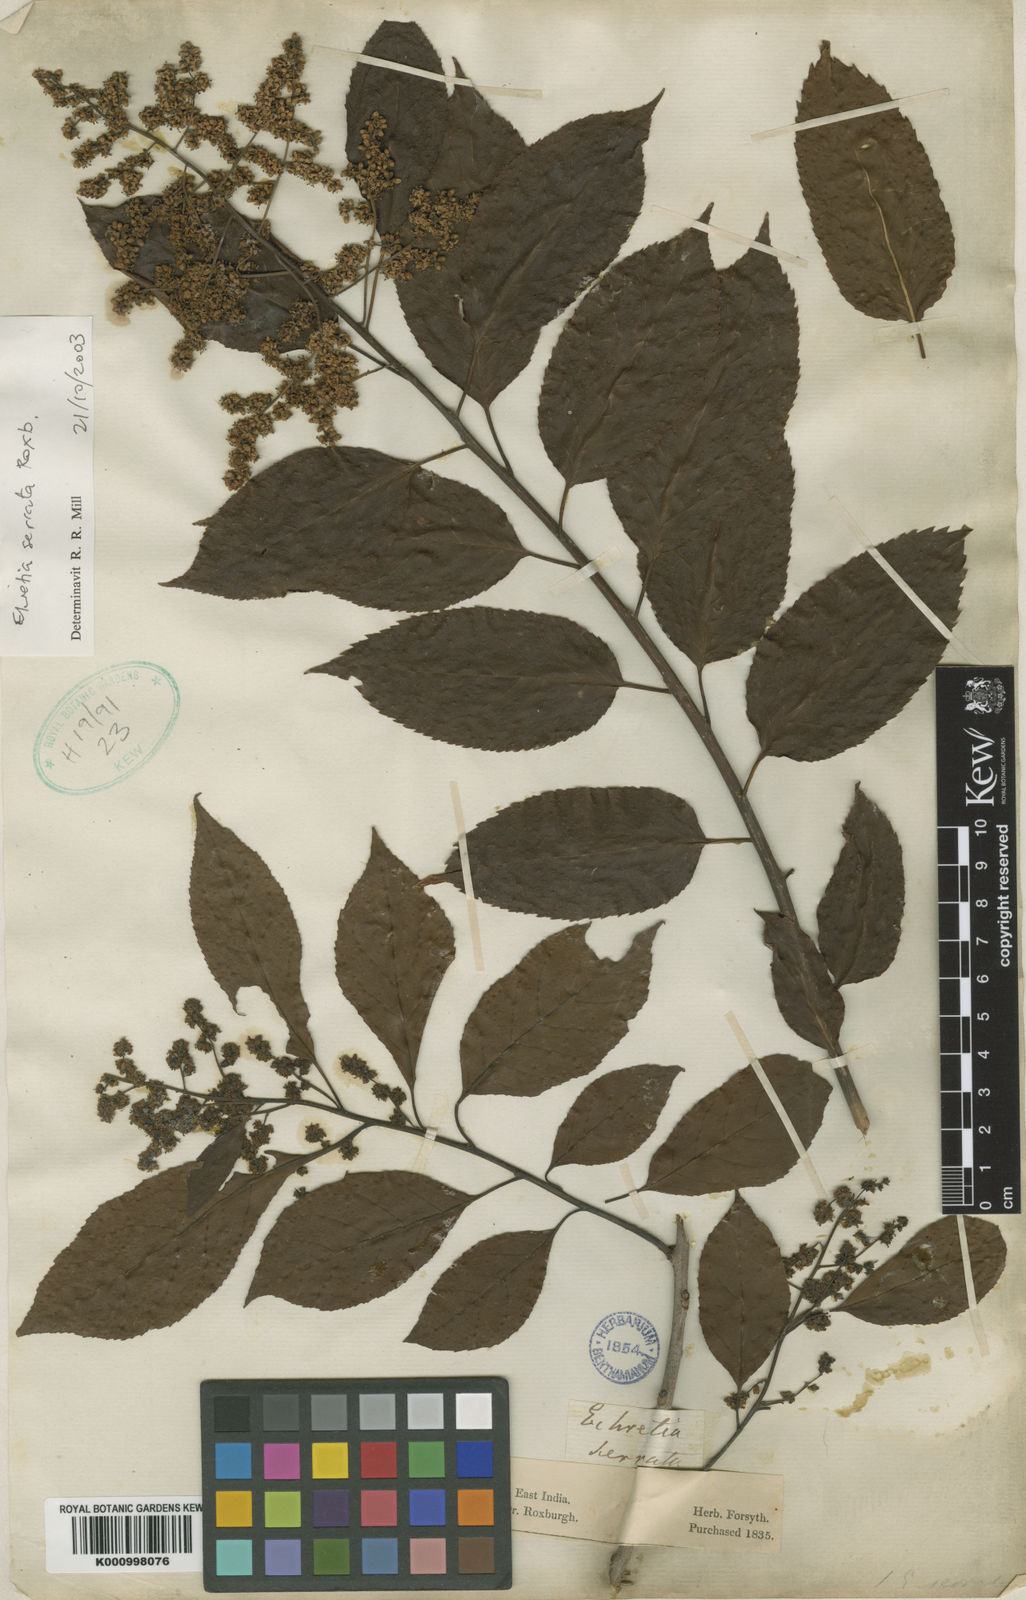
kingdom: Plantae
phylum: Tracheophyta
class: Magnoliopsida
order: Boraginales
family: Ehretiaceae
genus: Ehretia
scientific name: Ehretia acuminata
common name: Kodo wood
